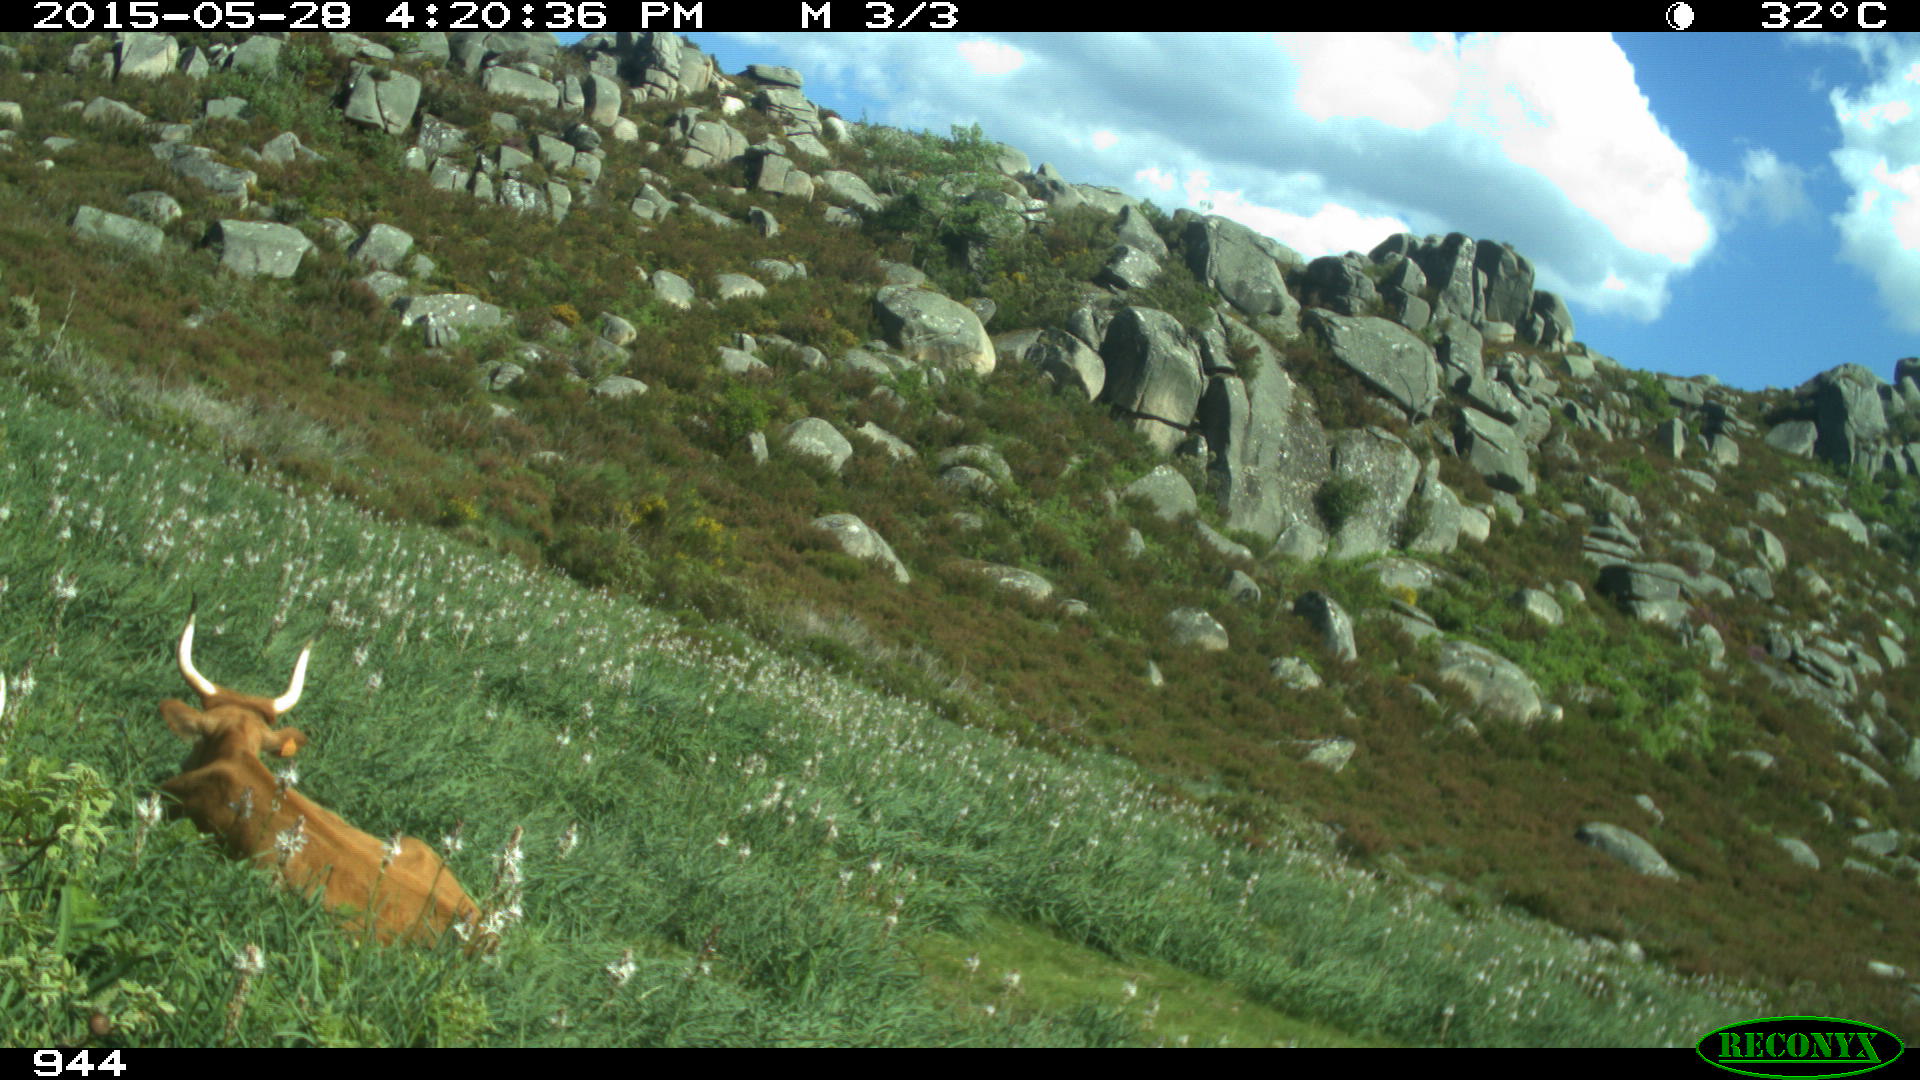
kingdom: Animalia
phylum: Chordata
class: Mammalia
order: Artiodactyla
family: Bovidae
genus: Bos
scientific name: Bos taurus
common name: Domesticated cattle
